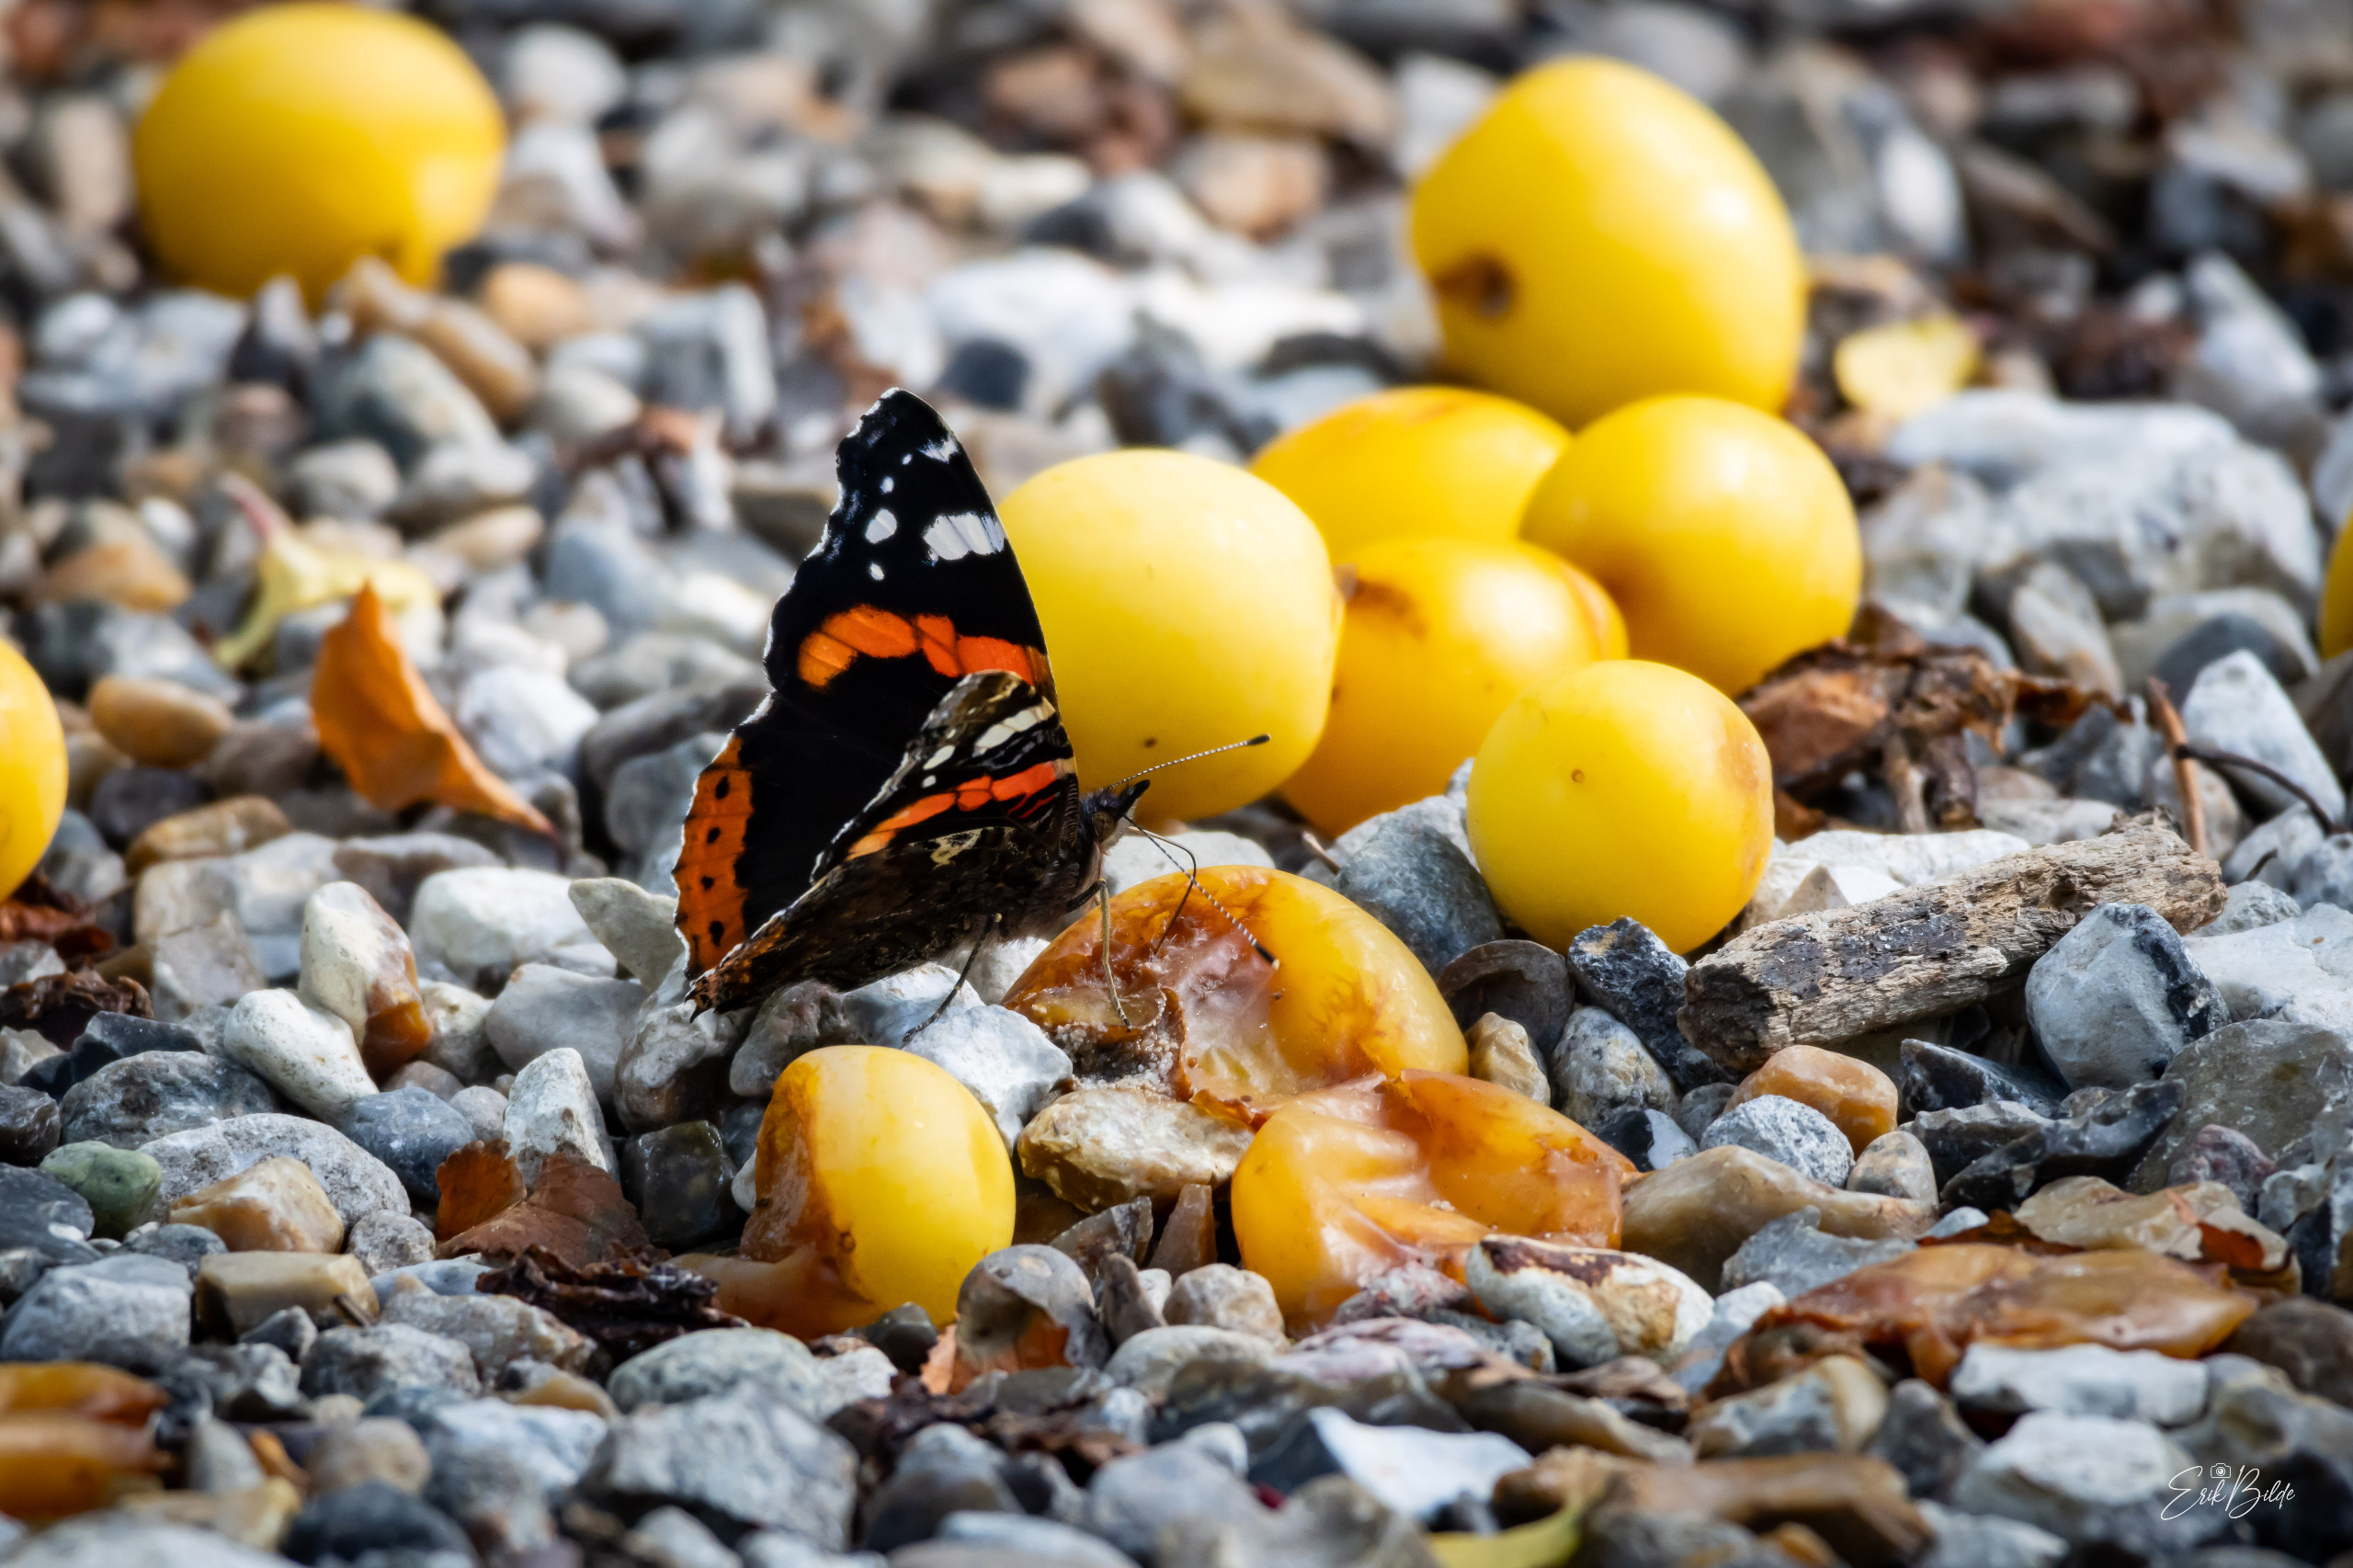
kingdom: Animalia
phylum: Arthropoda
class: Insecta
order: Lepidoptera
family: Nymphalidae
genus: Vanessa
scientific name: Vanessa atalanta
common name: Admiral
